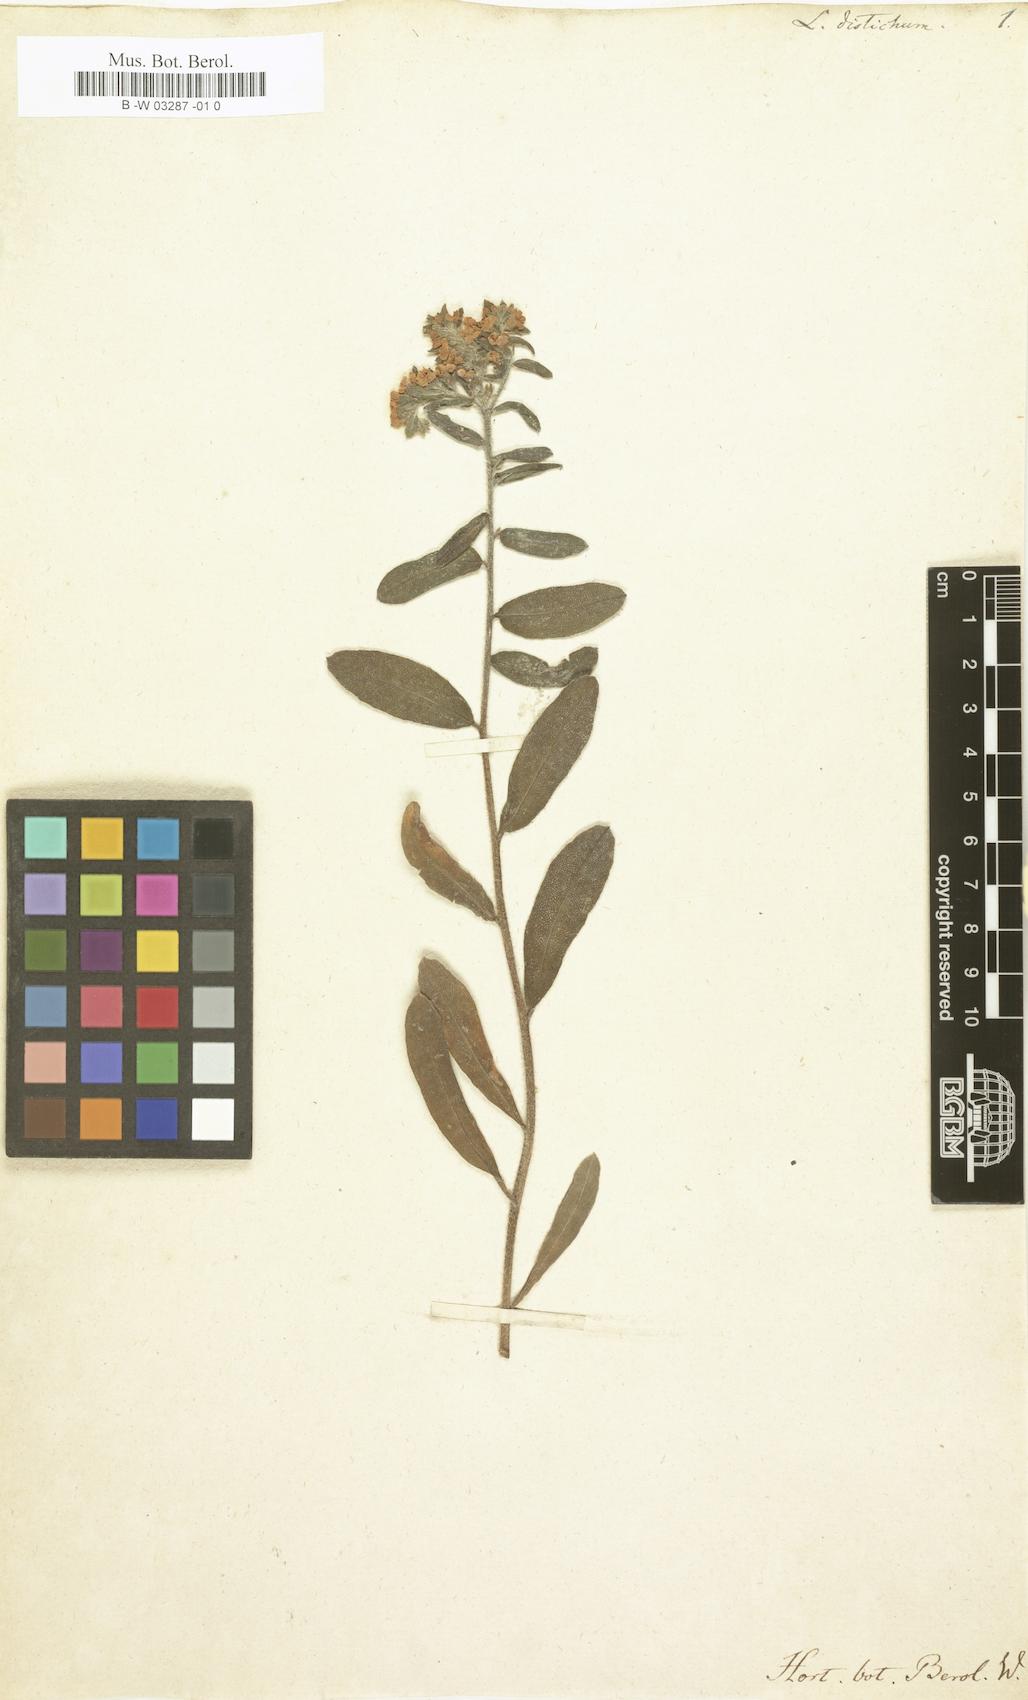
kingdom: Plantae
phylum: Tracheophyta
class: Magnoliopsida
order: Boraginales
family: Boraginaceae
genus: Lithospermum
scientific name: Lithospermum distichum
